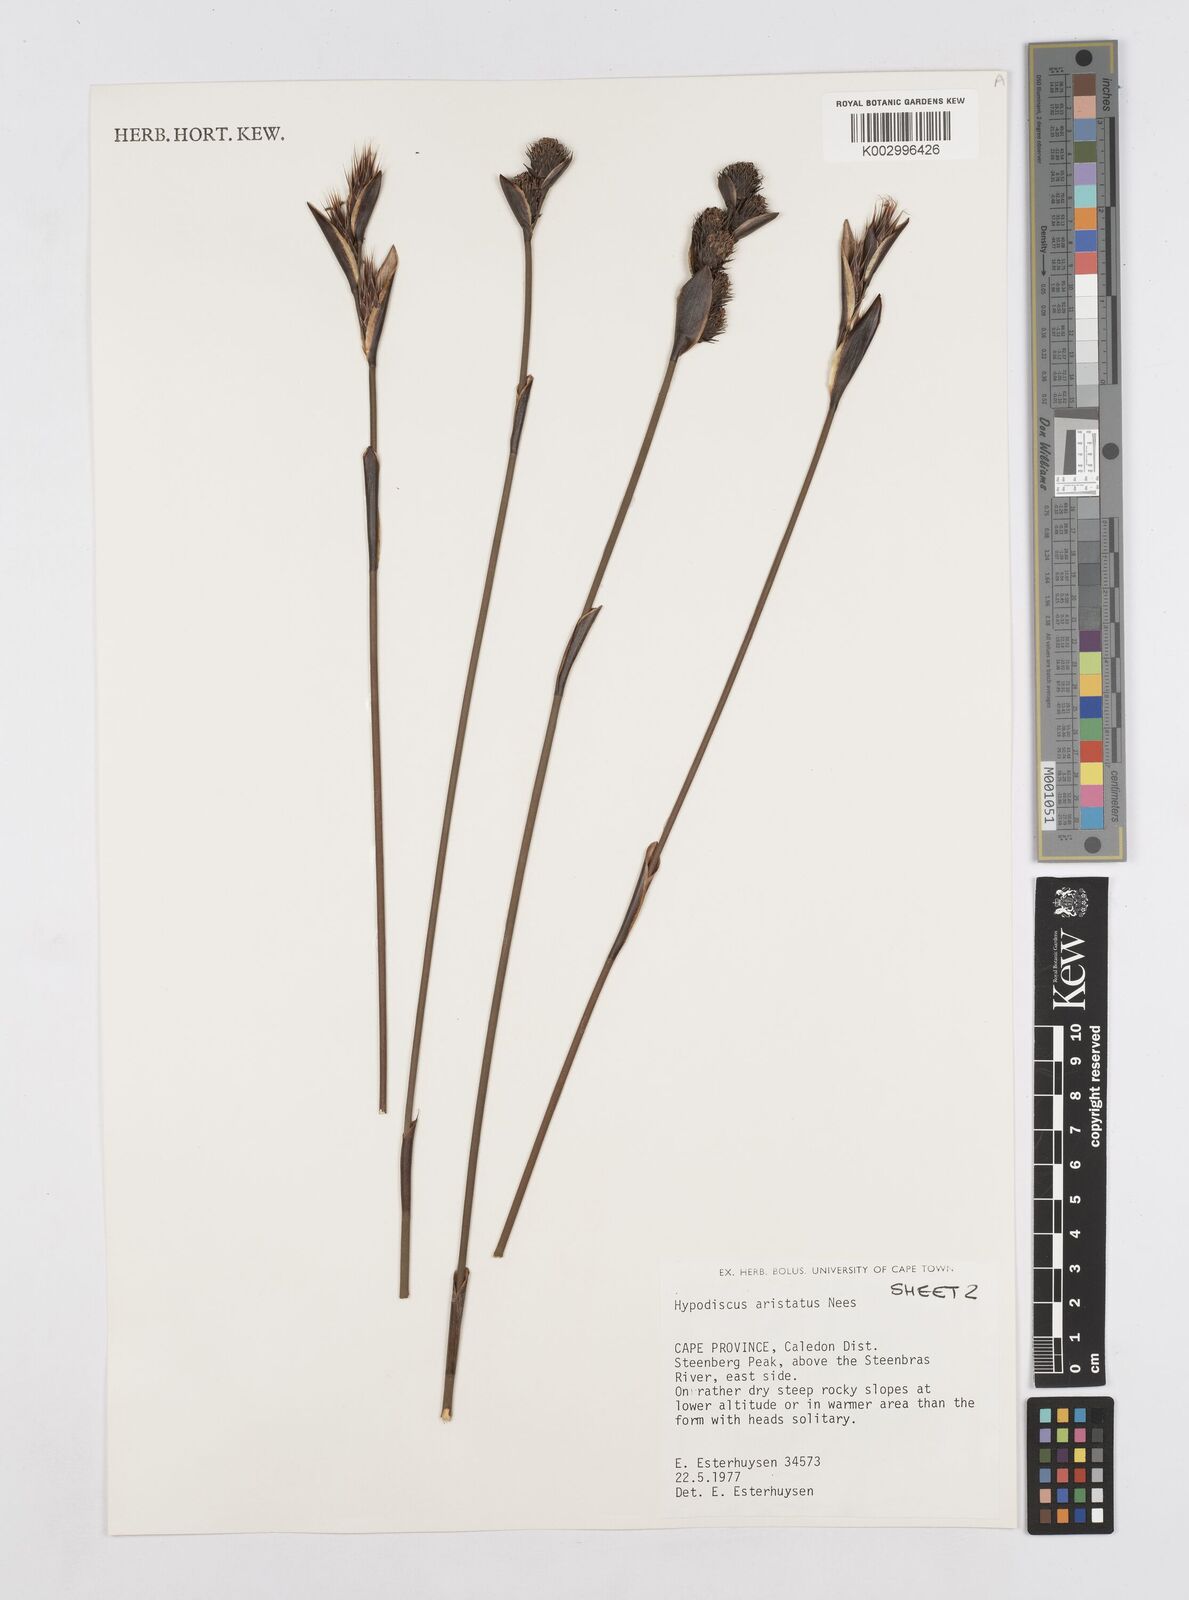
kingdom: Plantae
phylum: Tracheophyta
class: Liliopsida
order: Poales
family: Restionaceae
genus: Hypodiscus
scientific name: Hypodiscus aristatus
